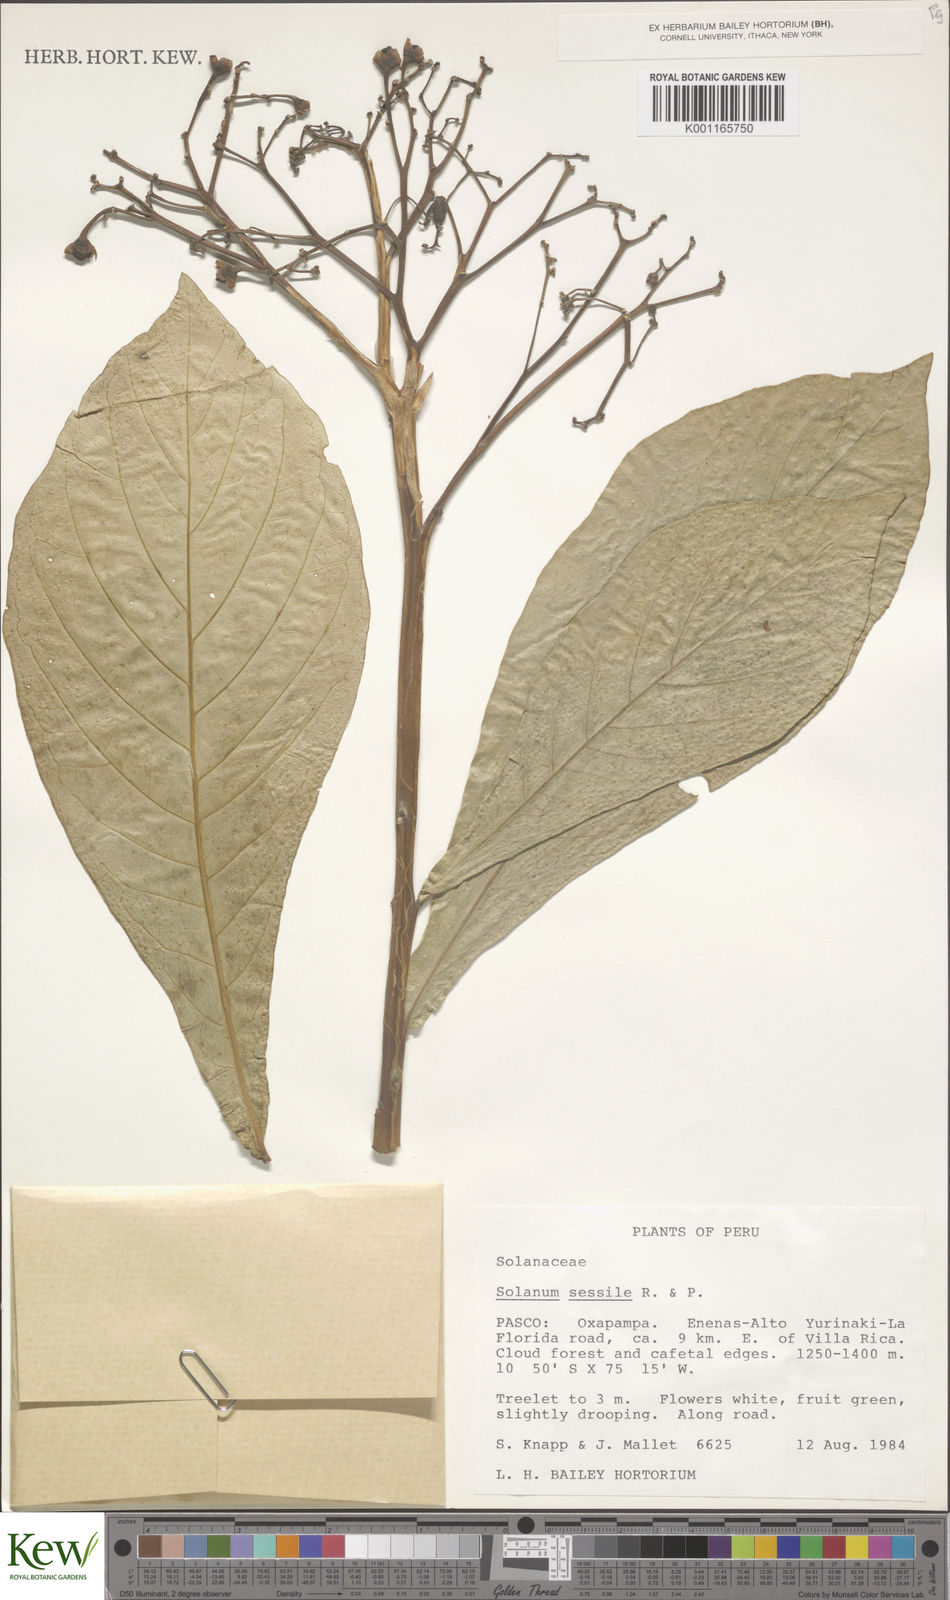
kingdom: Plantae
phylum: Tracheophyta
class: Magnoliopsida
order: Solanales
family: Solanaceae
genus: Solanum
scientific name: Solanum sessile
